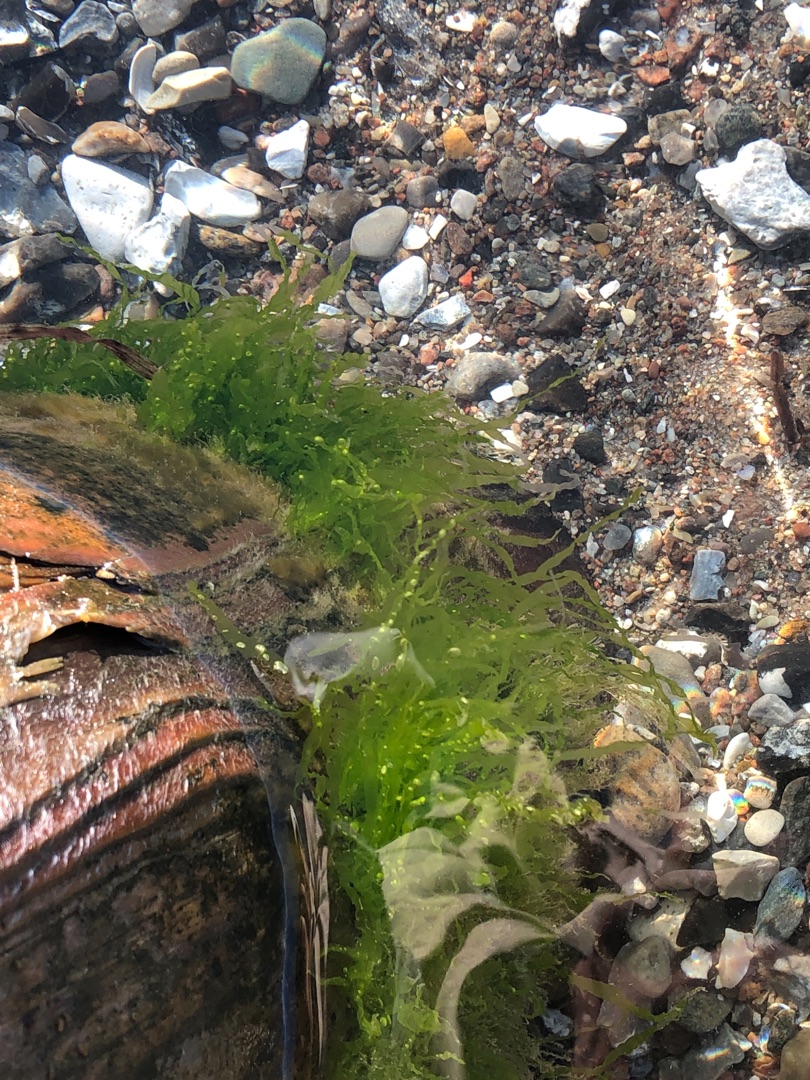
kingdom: Plantae
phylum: Chlorophyta
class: Ulvophyceae
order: Ulvales
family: Ulvaceae
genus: Ulva
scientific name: Ulva intestinalis
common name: Tarm-rørhinde
